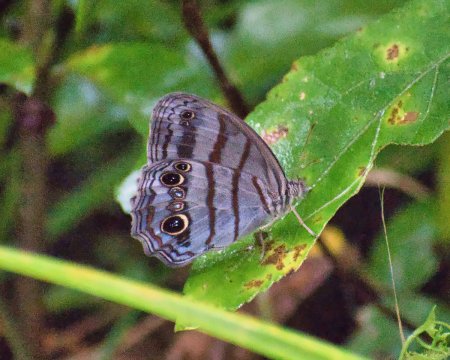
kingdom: Animalia
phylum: Arthropoda
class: Insecta
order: Lepidoptera
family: Nymphalidae
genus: Magneuptychia
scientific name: Magneuptychia libye
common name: Blue-gray Satyr
